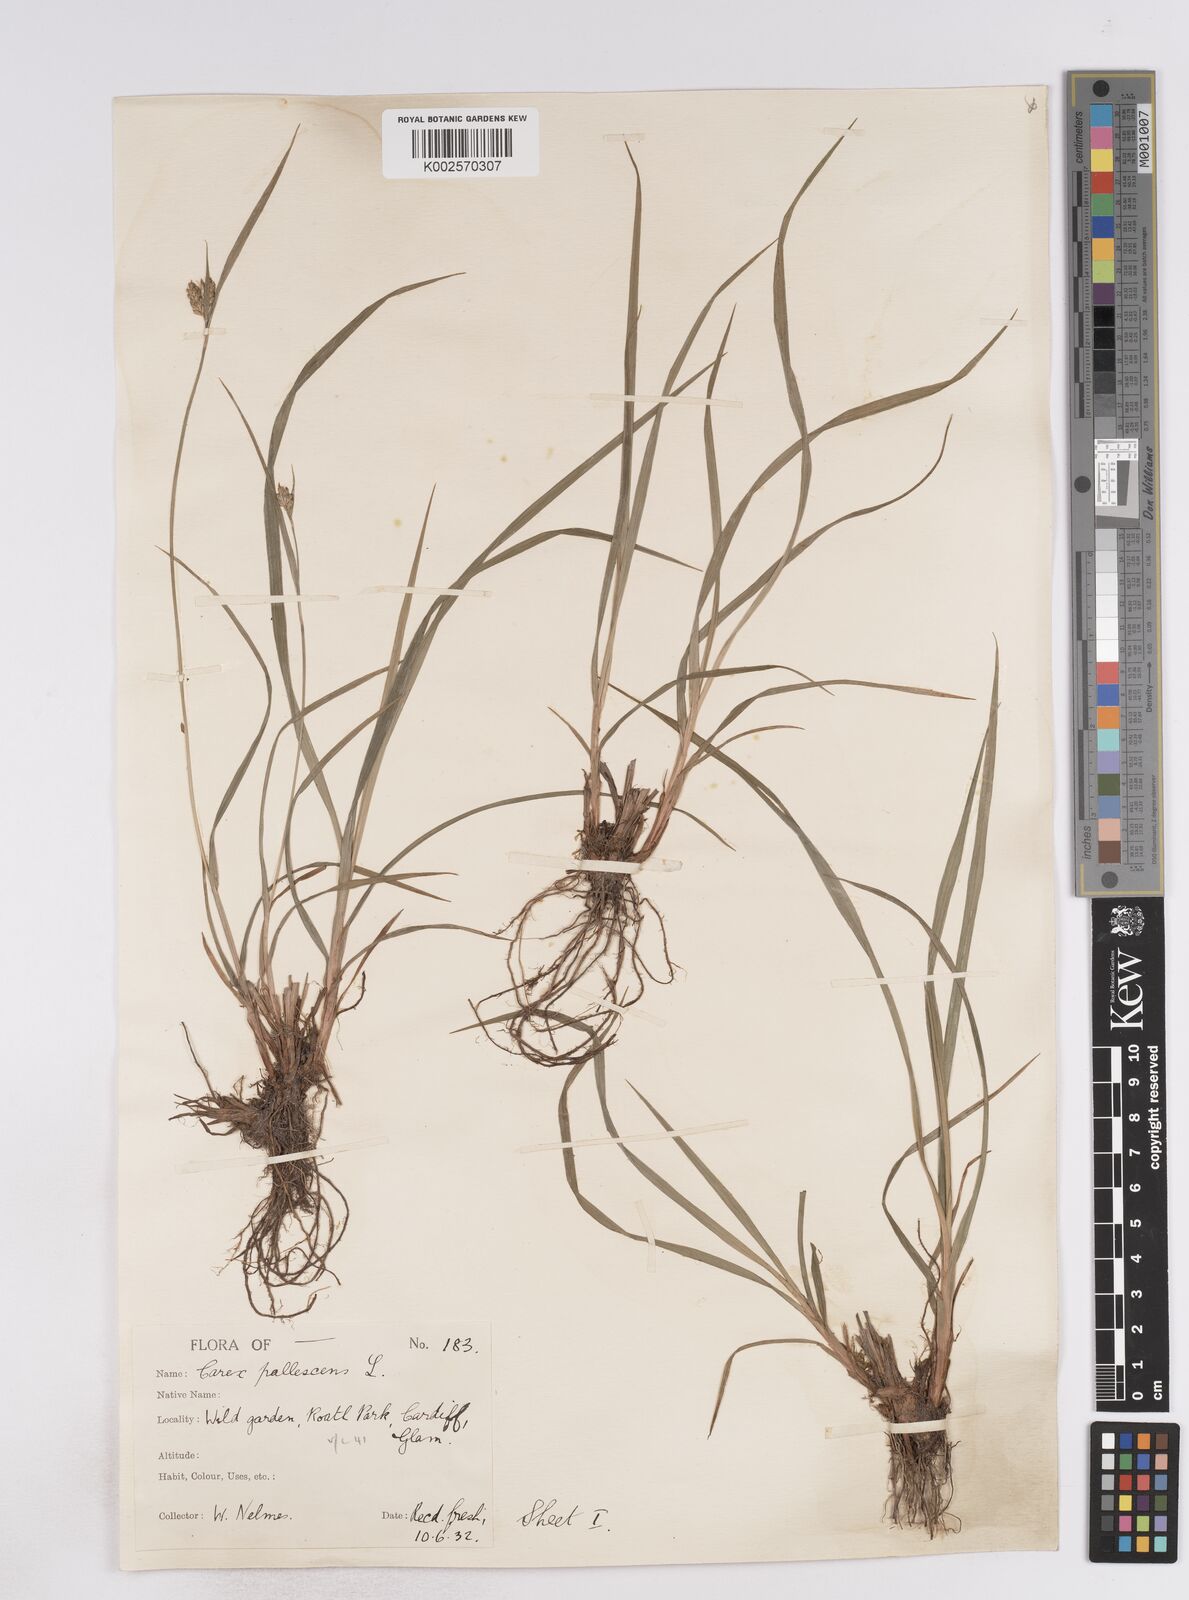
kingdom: Plantae
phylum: Tracheophyta
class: Liliopsida
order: Poales
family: Cyperaceae
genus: Carex
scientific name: Carex pallescens
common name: Pale sedge
